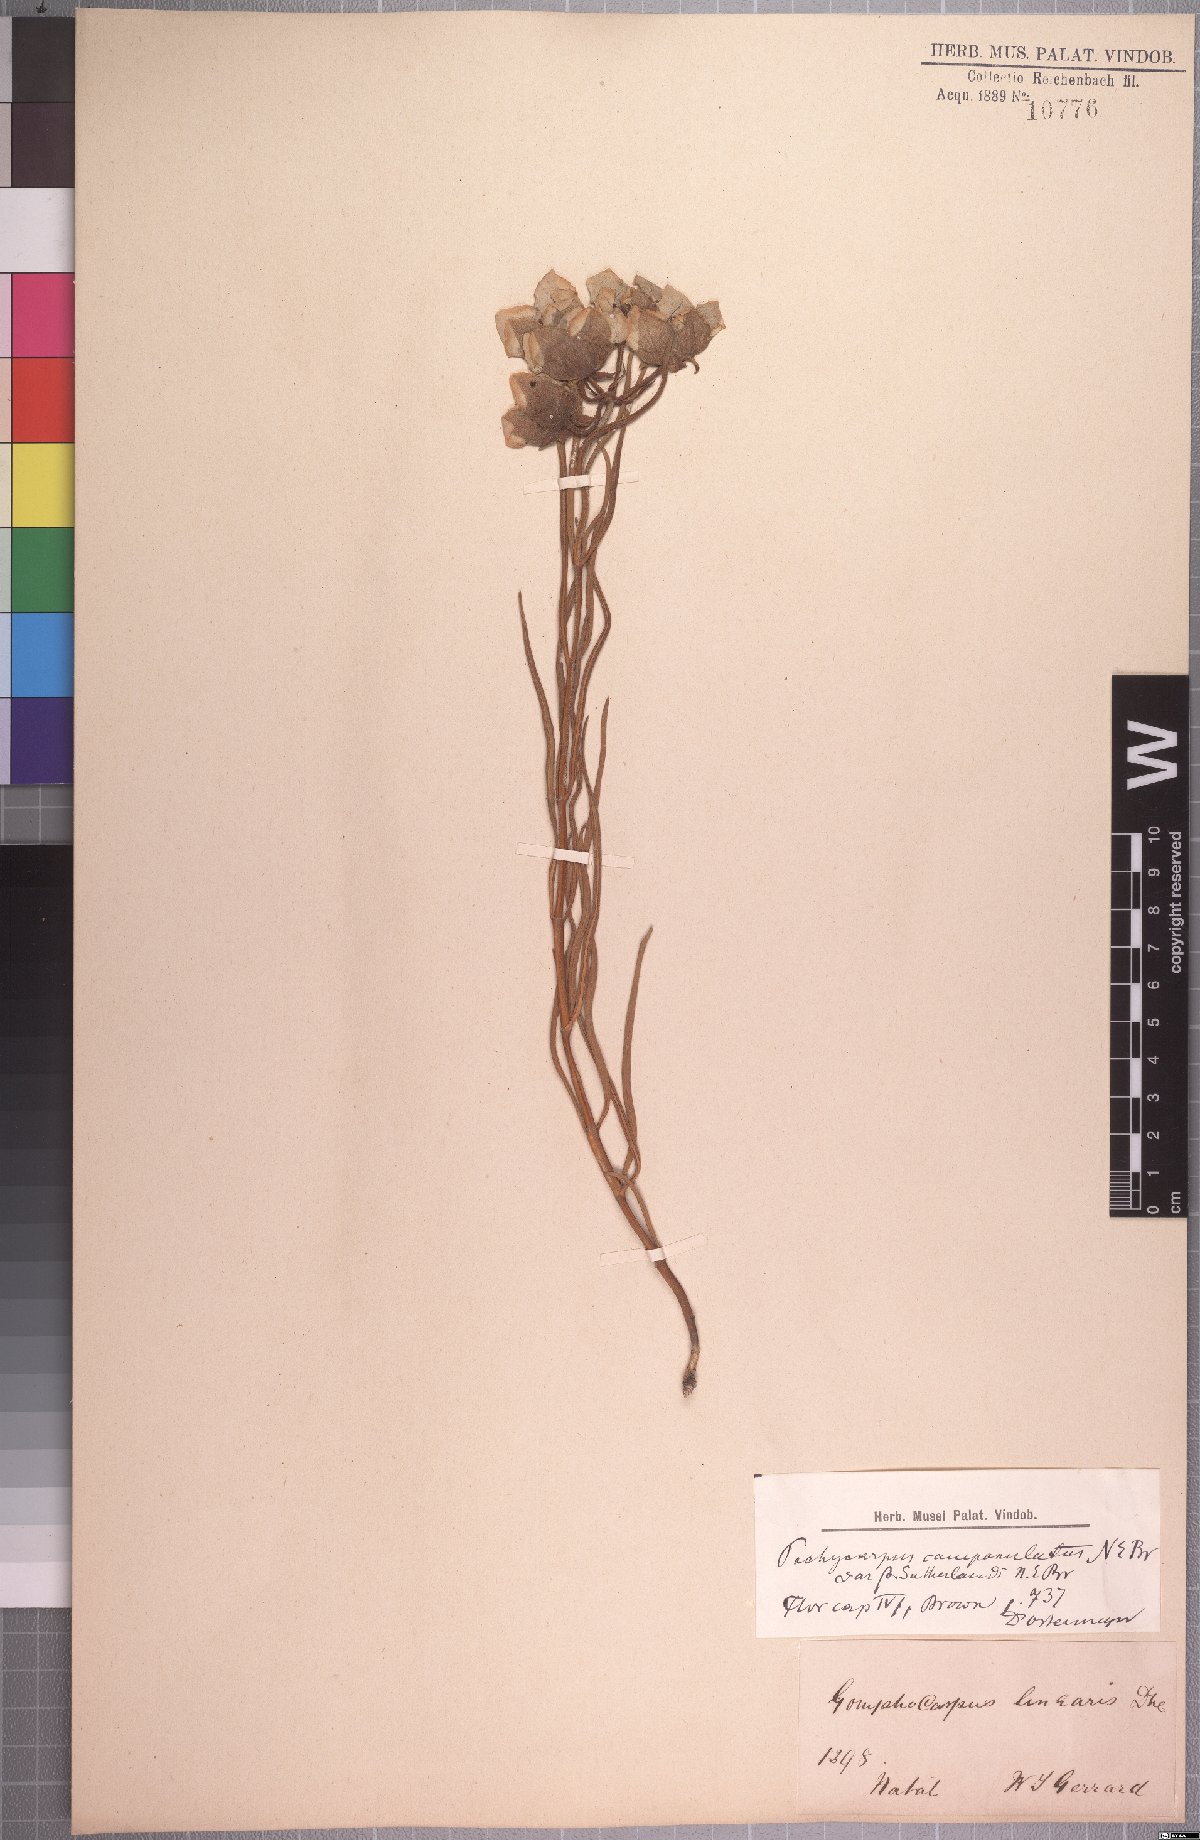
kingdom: Plantae
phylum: Tracheophyta
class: Magnoliopsida
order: Gentianales
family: Apocynaceae
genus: Pachycarpus
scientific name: Pachycarpus campanulatus
